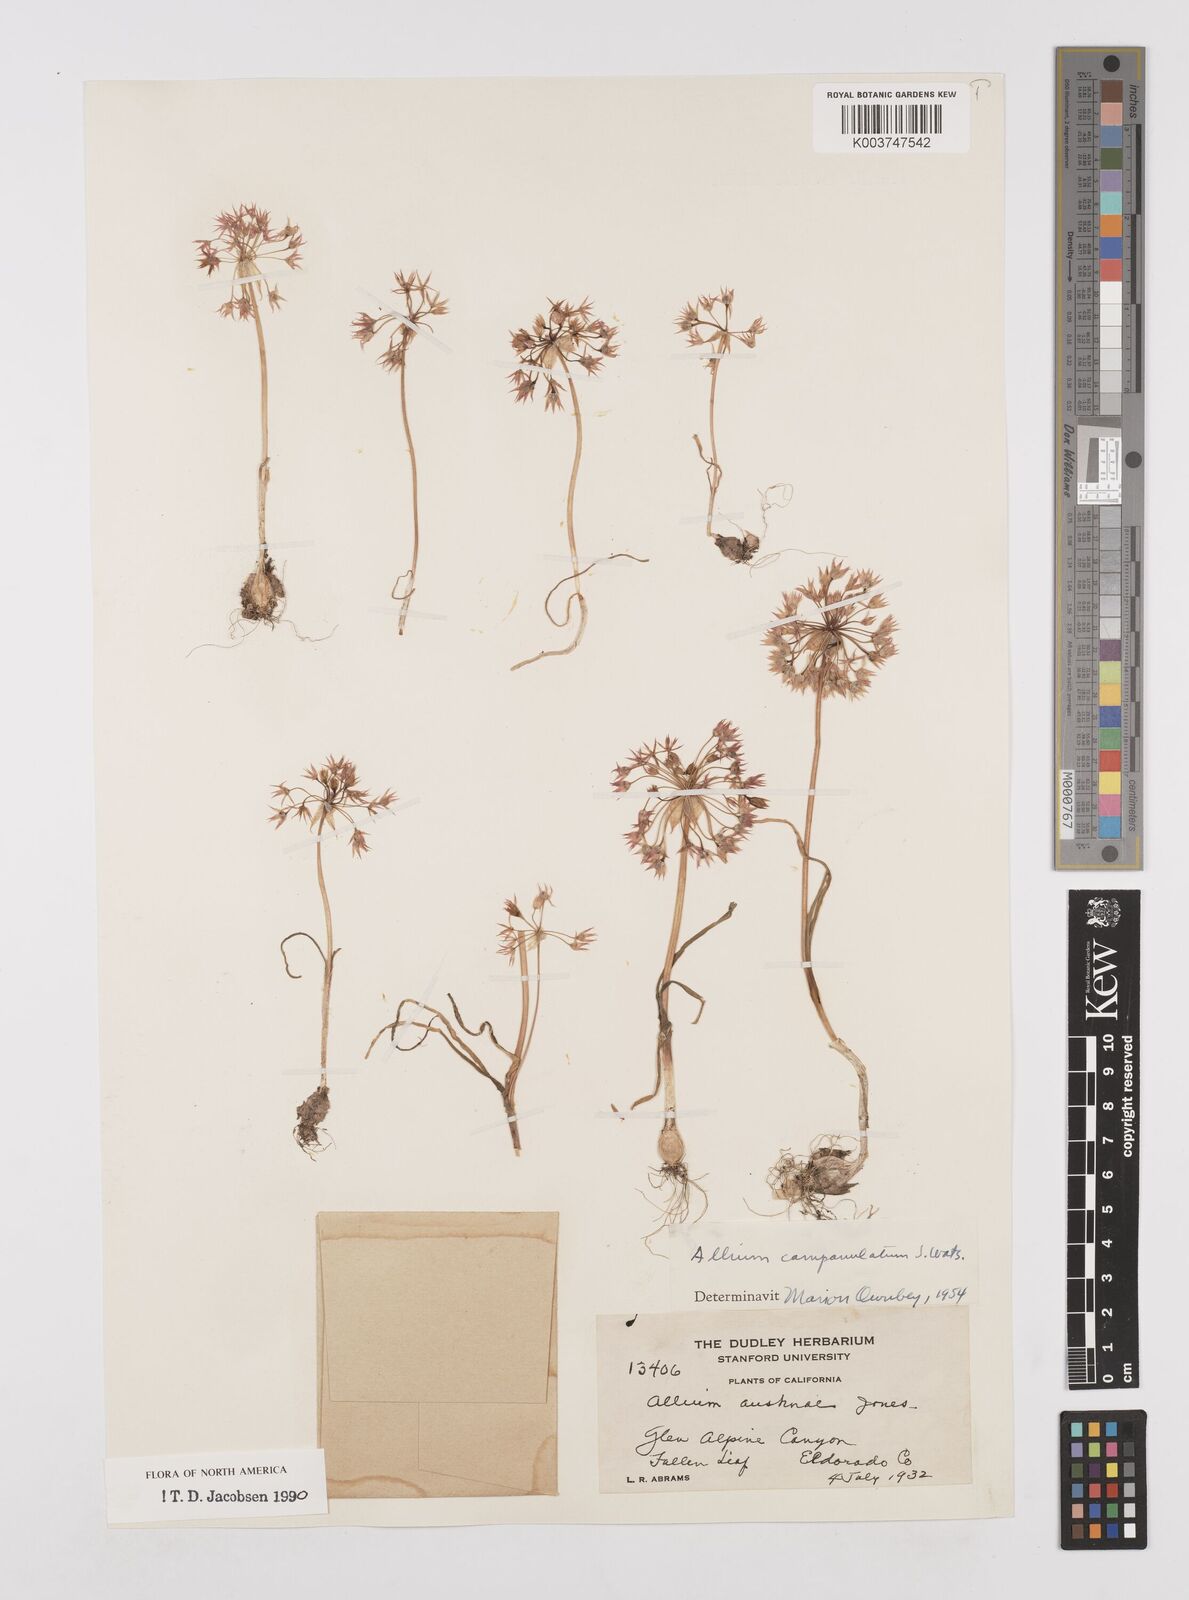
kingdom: Plantae
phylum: Tracheophyta
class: Liliopsida
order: Asparagales
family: Amaryllidaceae
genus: Allium
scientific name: Allium campanulatum
